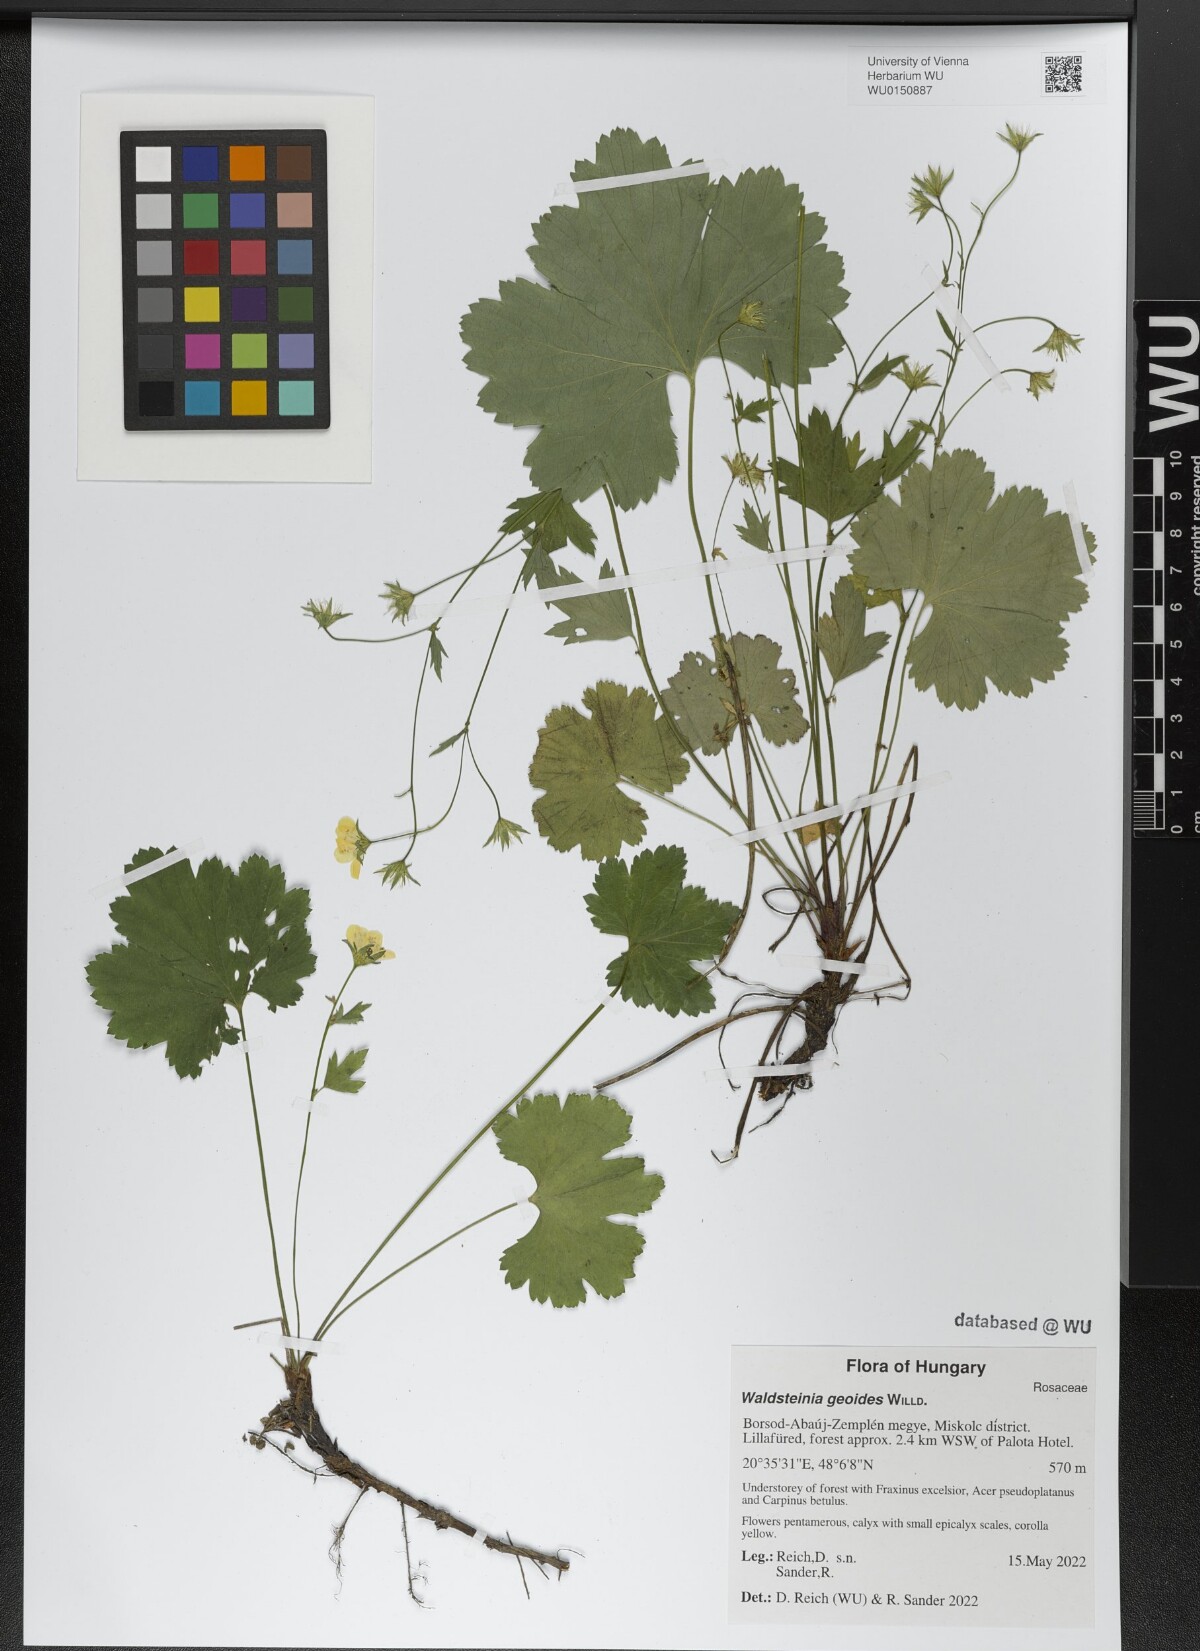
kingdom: Plantae
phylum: Tracheophyta
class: Magnoliopsida
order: Rosales
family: Rosaceae
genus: Geum
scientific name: Geum waldsteinia
